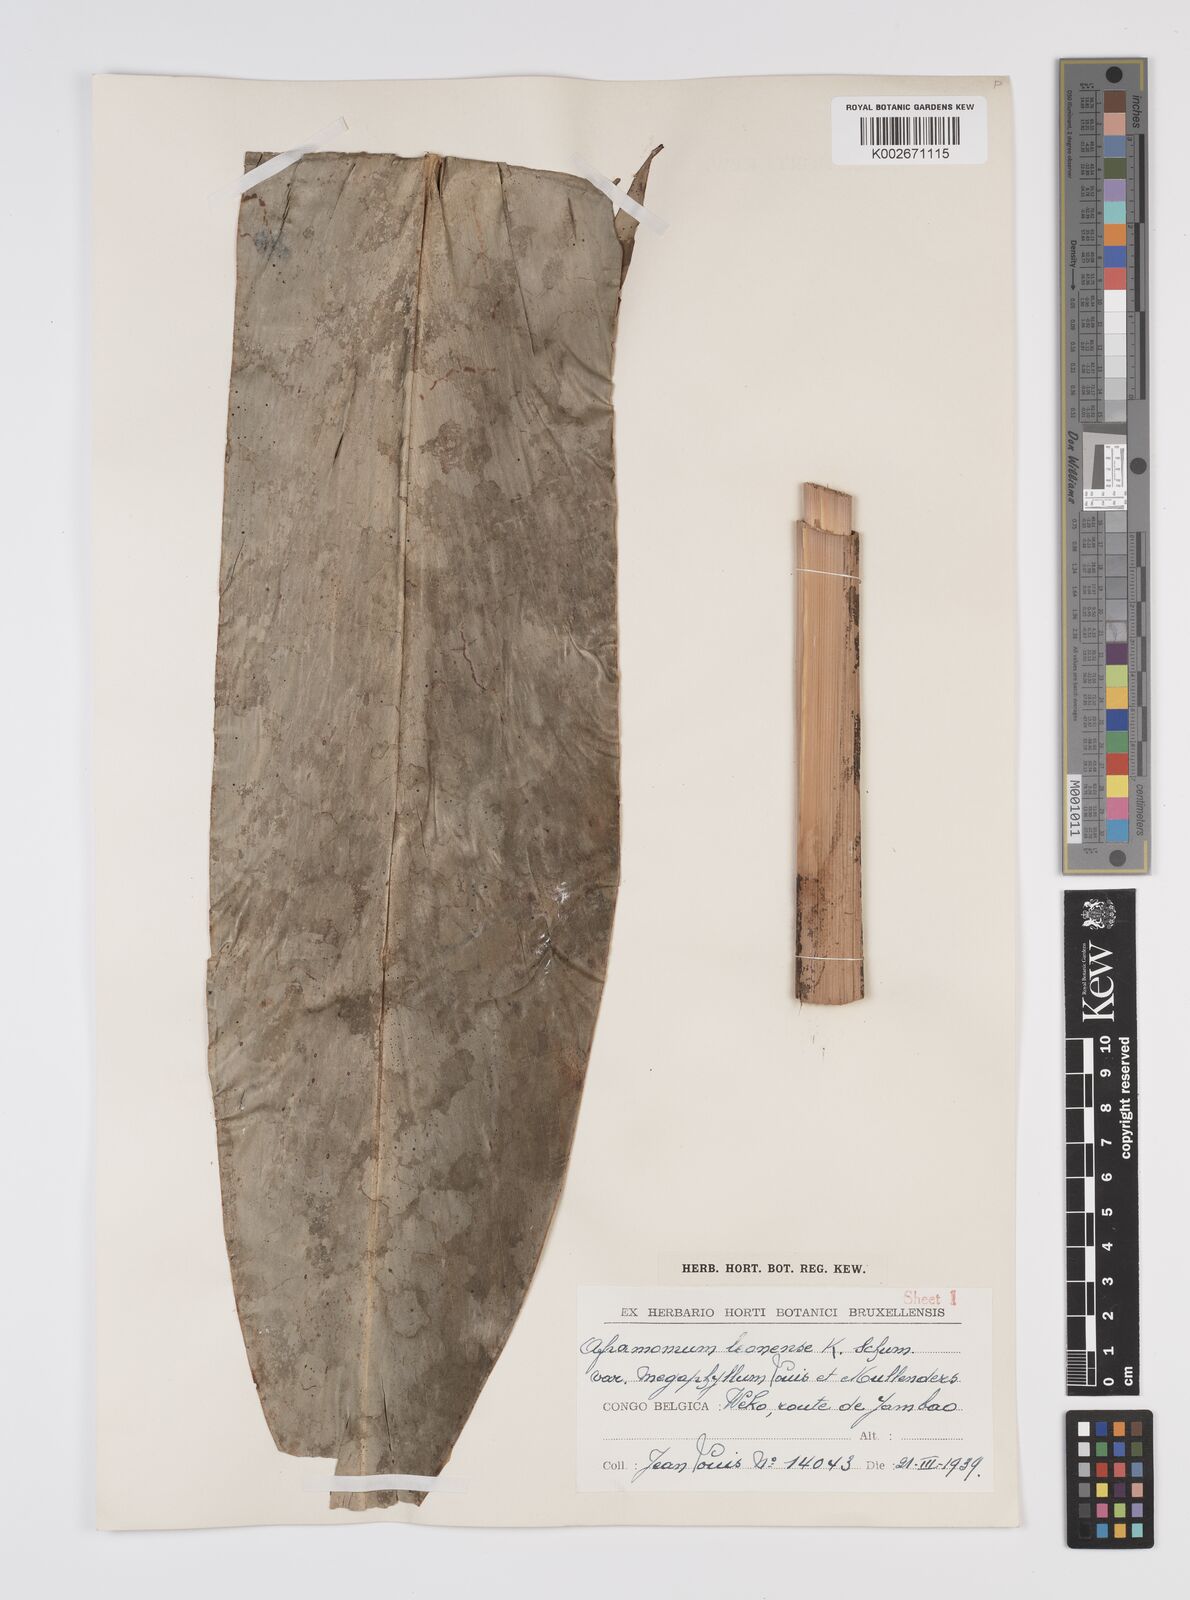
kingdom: Plantae
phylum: Tracheophyta
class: Liliopsida
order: Zingiberales
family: Zingiberaceae
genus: Aframomum
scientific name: Aframomum daniellii
